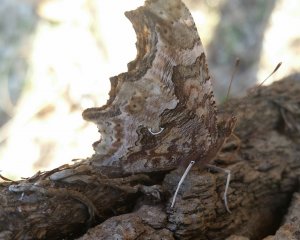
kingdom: Animalia
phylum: Arthropoda
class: Insecta
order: Lepidoptera
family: Nymphalidae
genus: Polygonia
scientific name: Polygonia comma
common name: Eastern Comma
